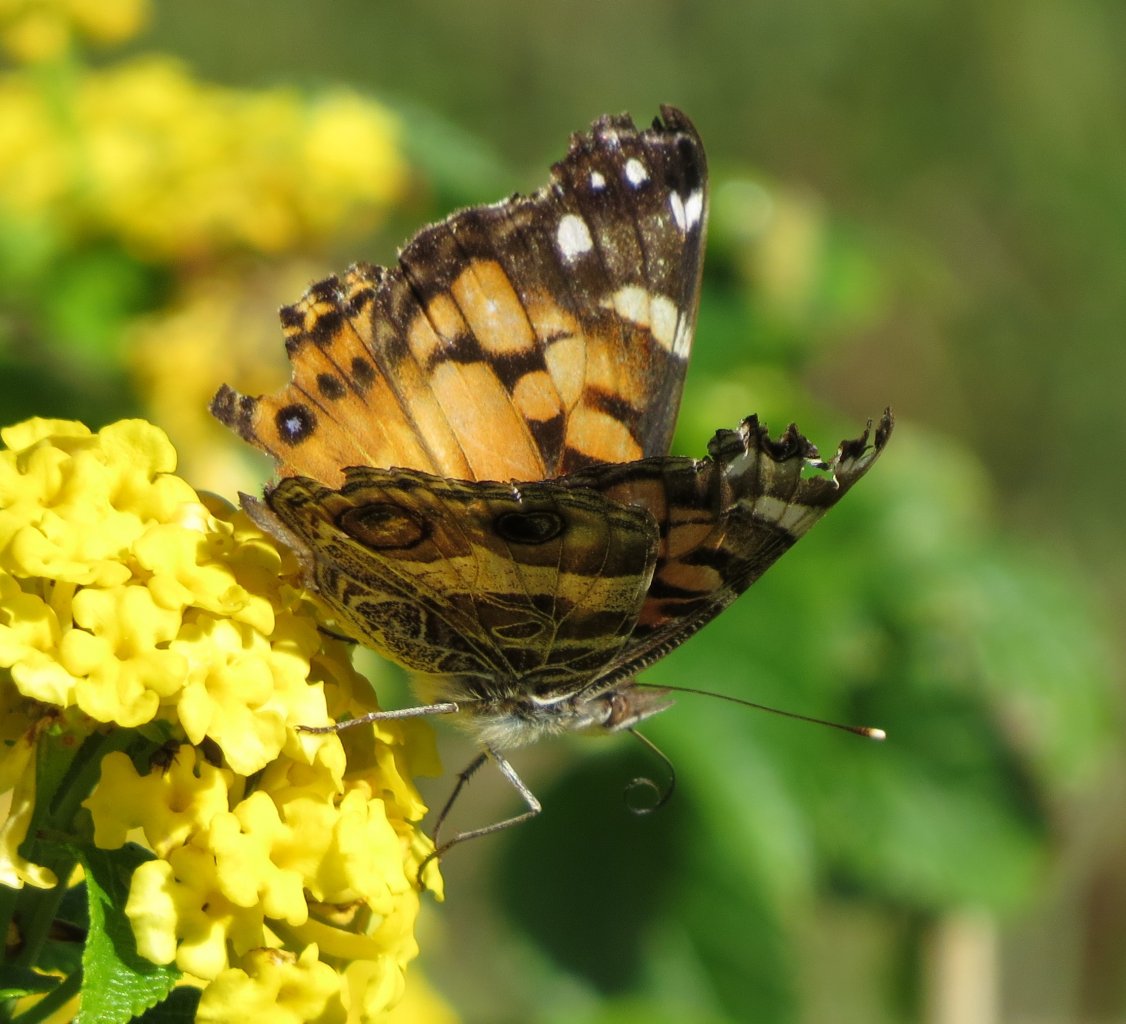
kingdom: Animalia
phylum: Arthropoda
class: Insecta
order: Lepidoptera
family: Nymphalidae
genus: Vanessa
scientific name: Vanessa virginiensis
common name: American Lady
